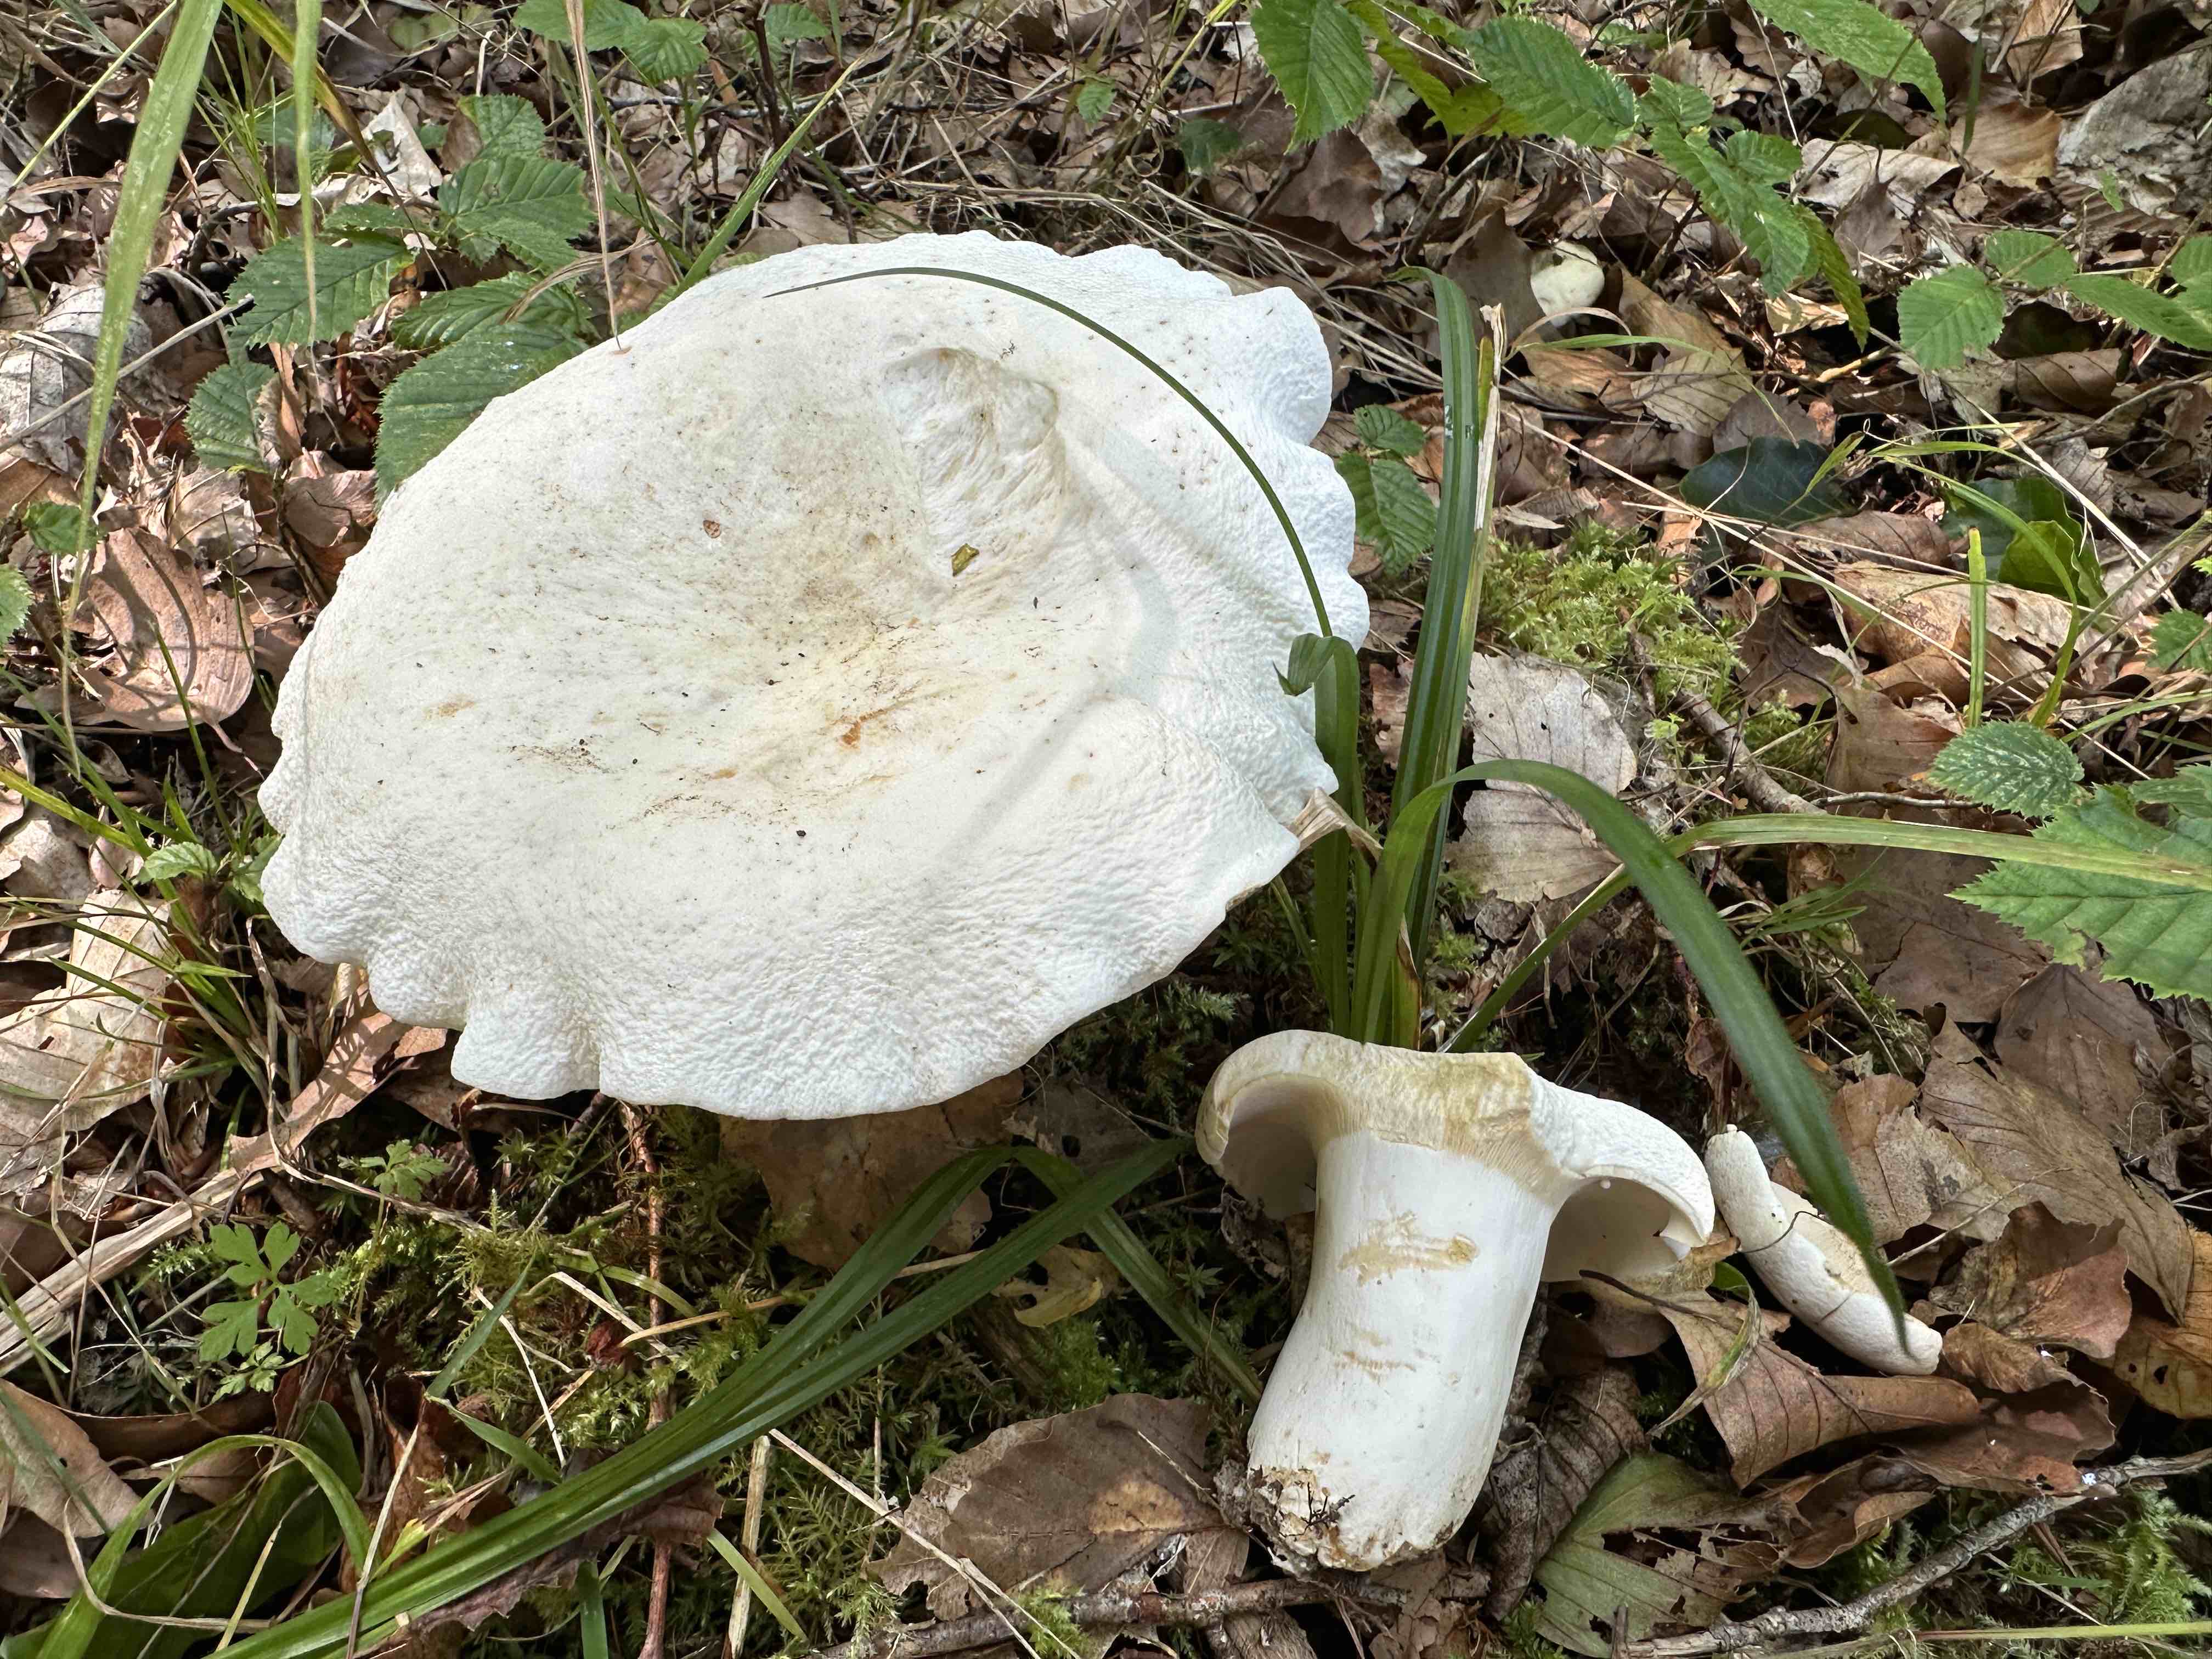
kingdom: Fungi
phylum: Basidiomycota
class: Agaricomycetes
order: Russulales
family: Russulaceae
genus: Lactifluus
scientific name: Lactifluus piperatus
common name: peber-mælkehat
